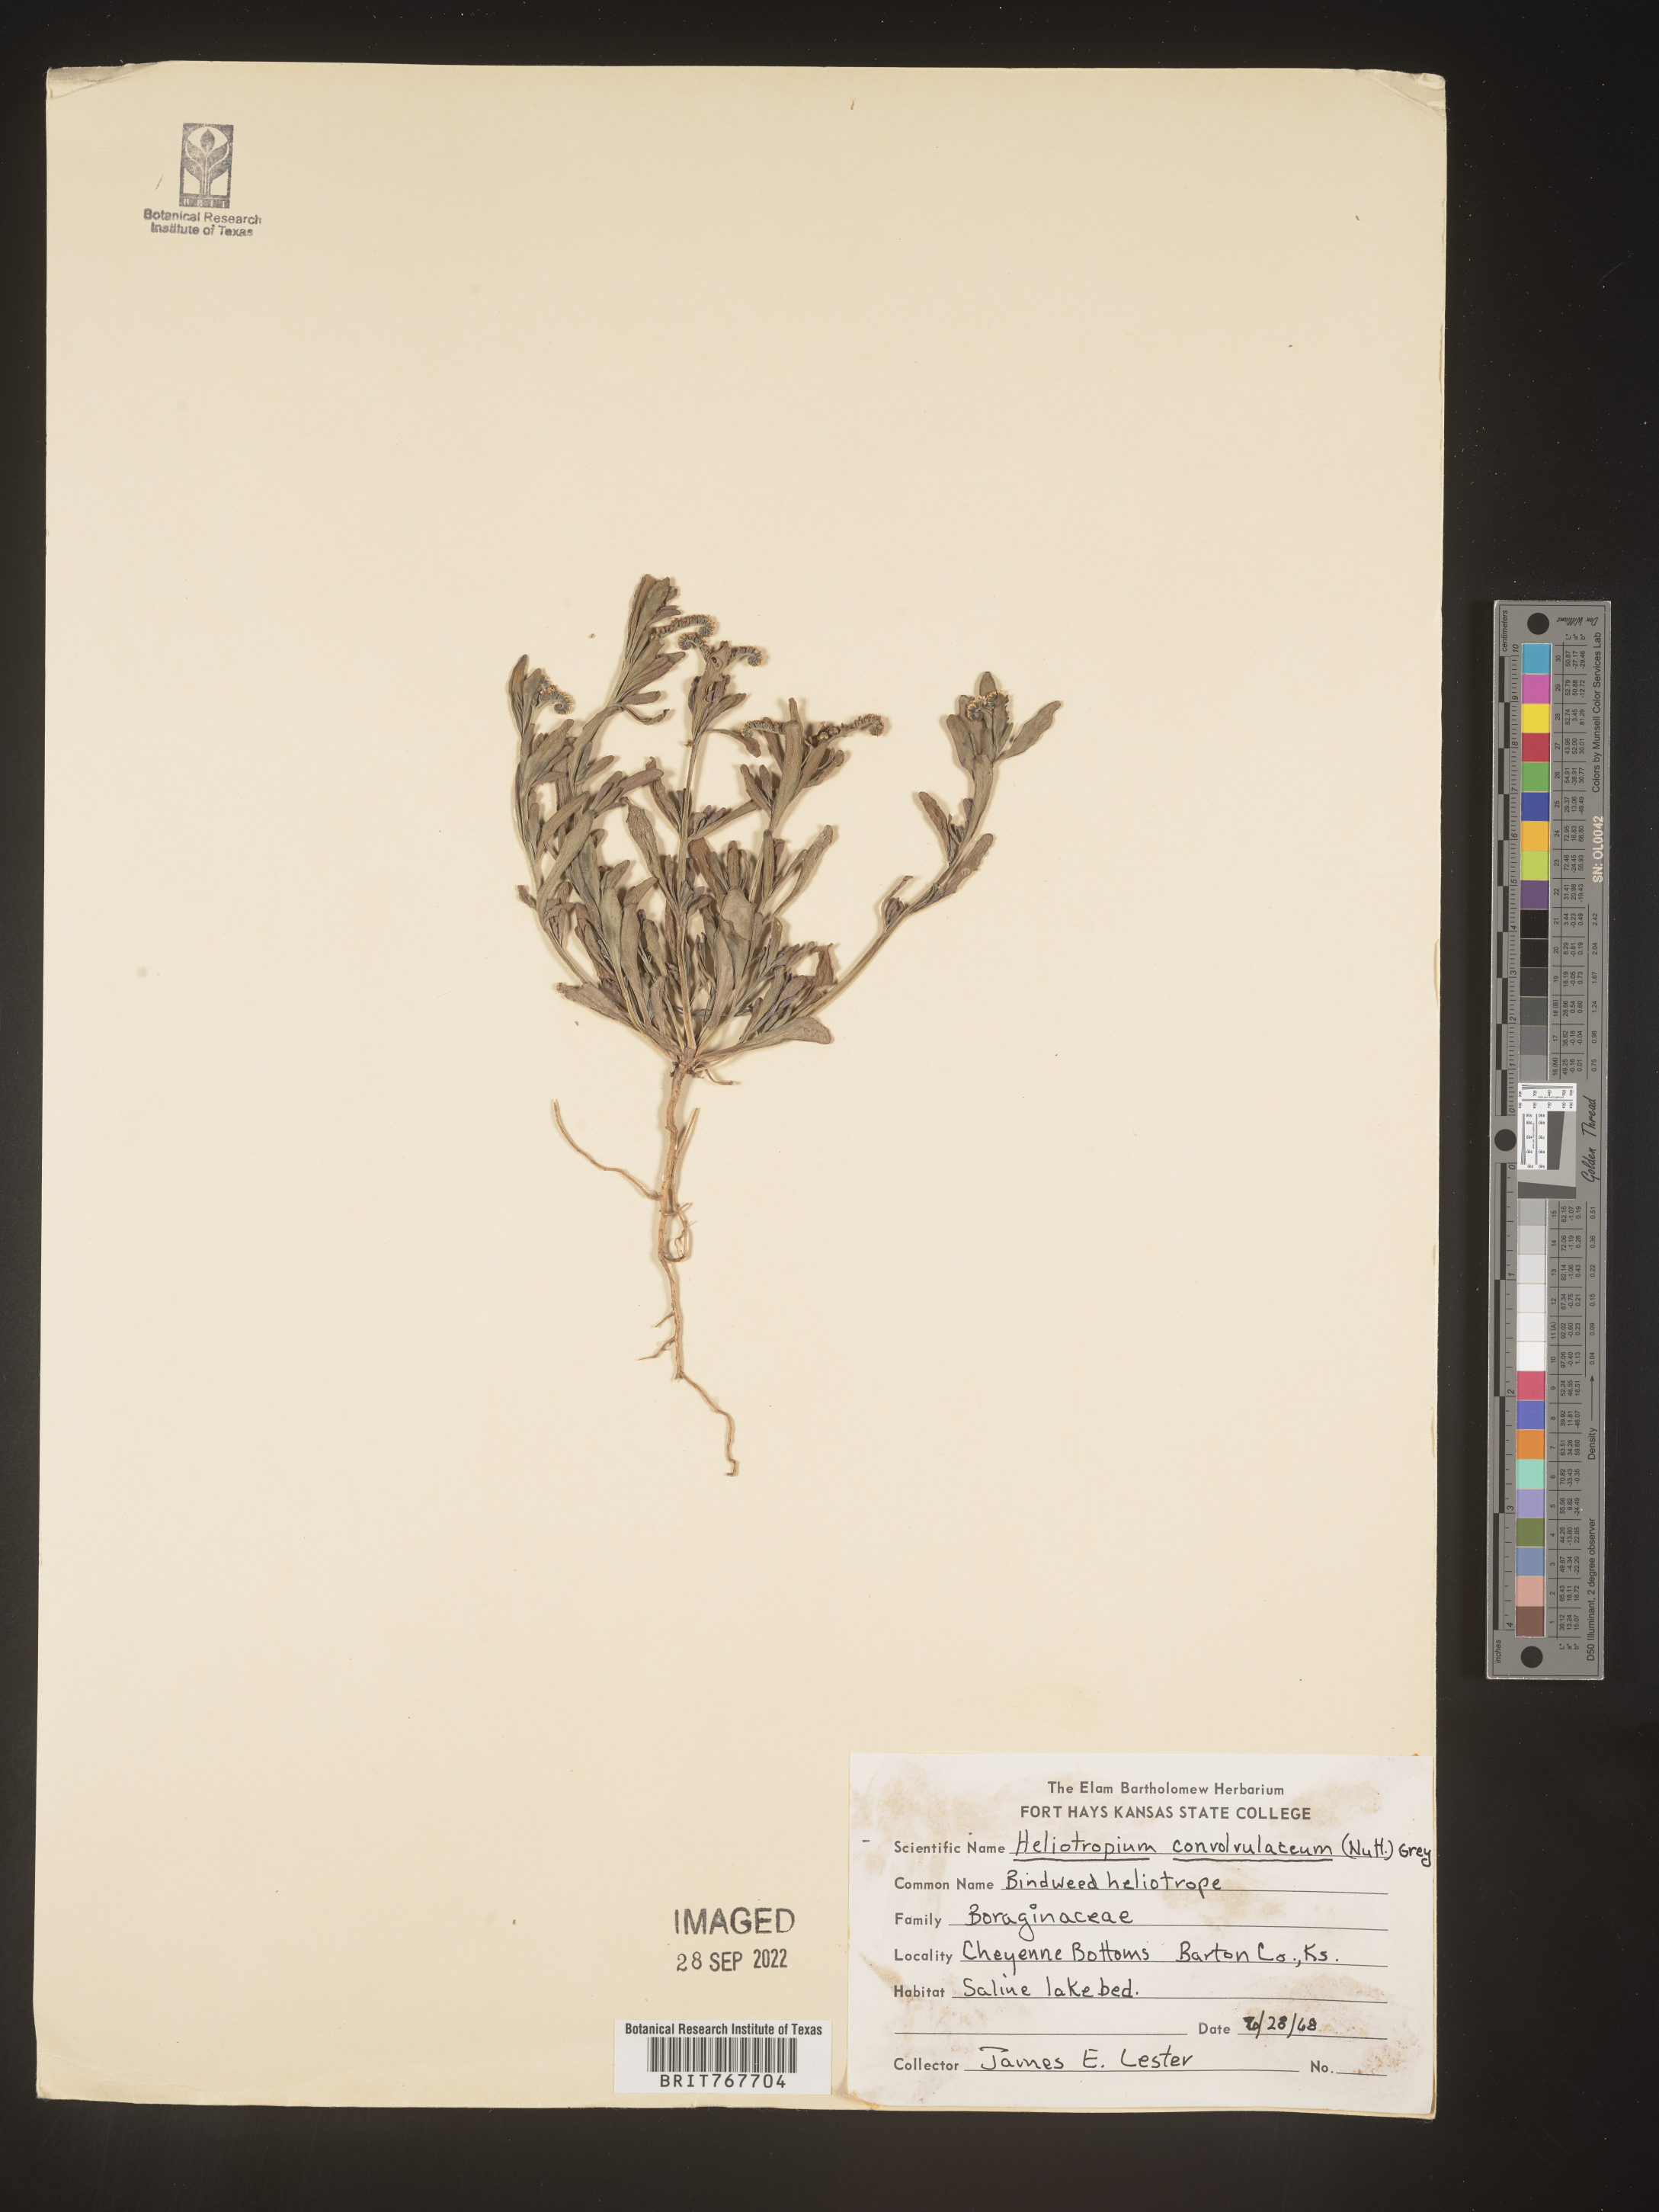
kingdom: Plantae
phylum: Tracheophyta
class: Magnoliopsida
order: Boraginales
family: Heliotropiaceae
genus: Heliotropium
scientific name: Heliotropium
